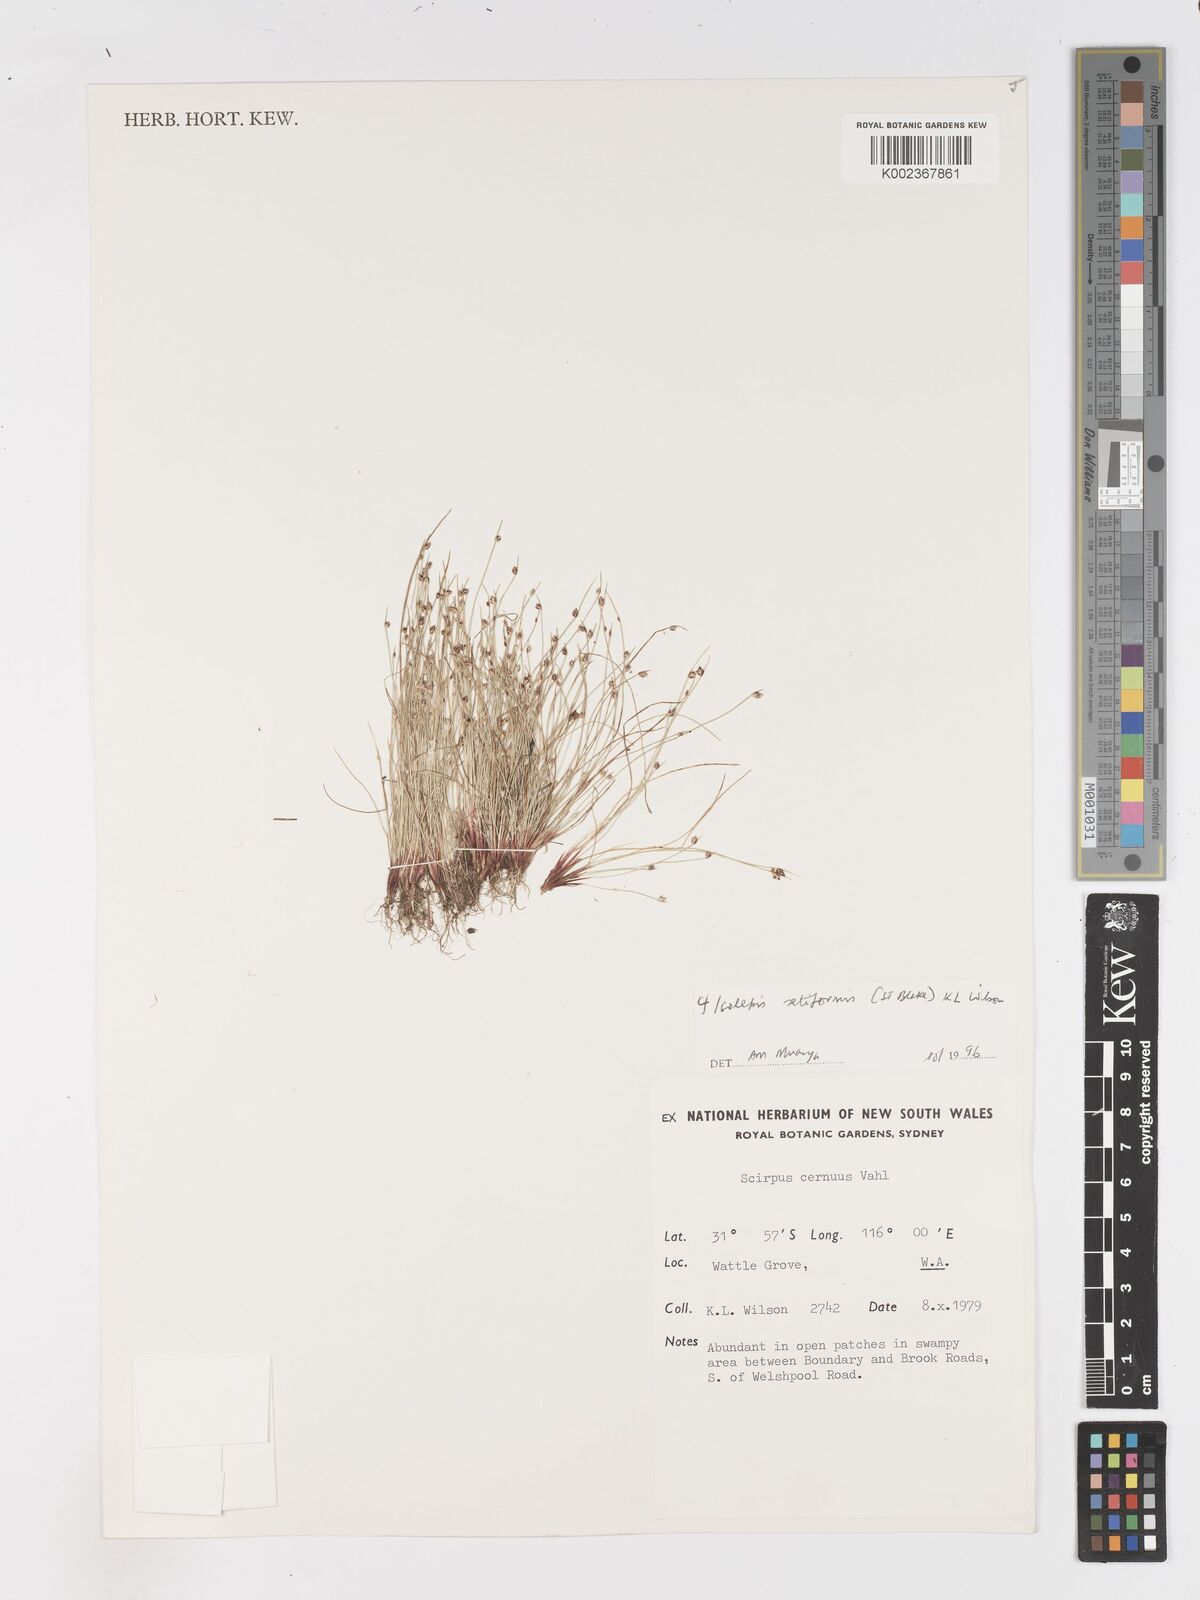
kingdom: Plantae
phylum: Tracheophyta
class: Liliopsida
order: Poales
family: Cyperaceae
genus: Isolepis
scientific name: Isolepis cernua
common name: Slender club-rush
